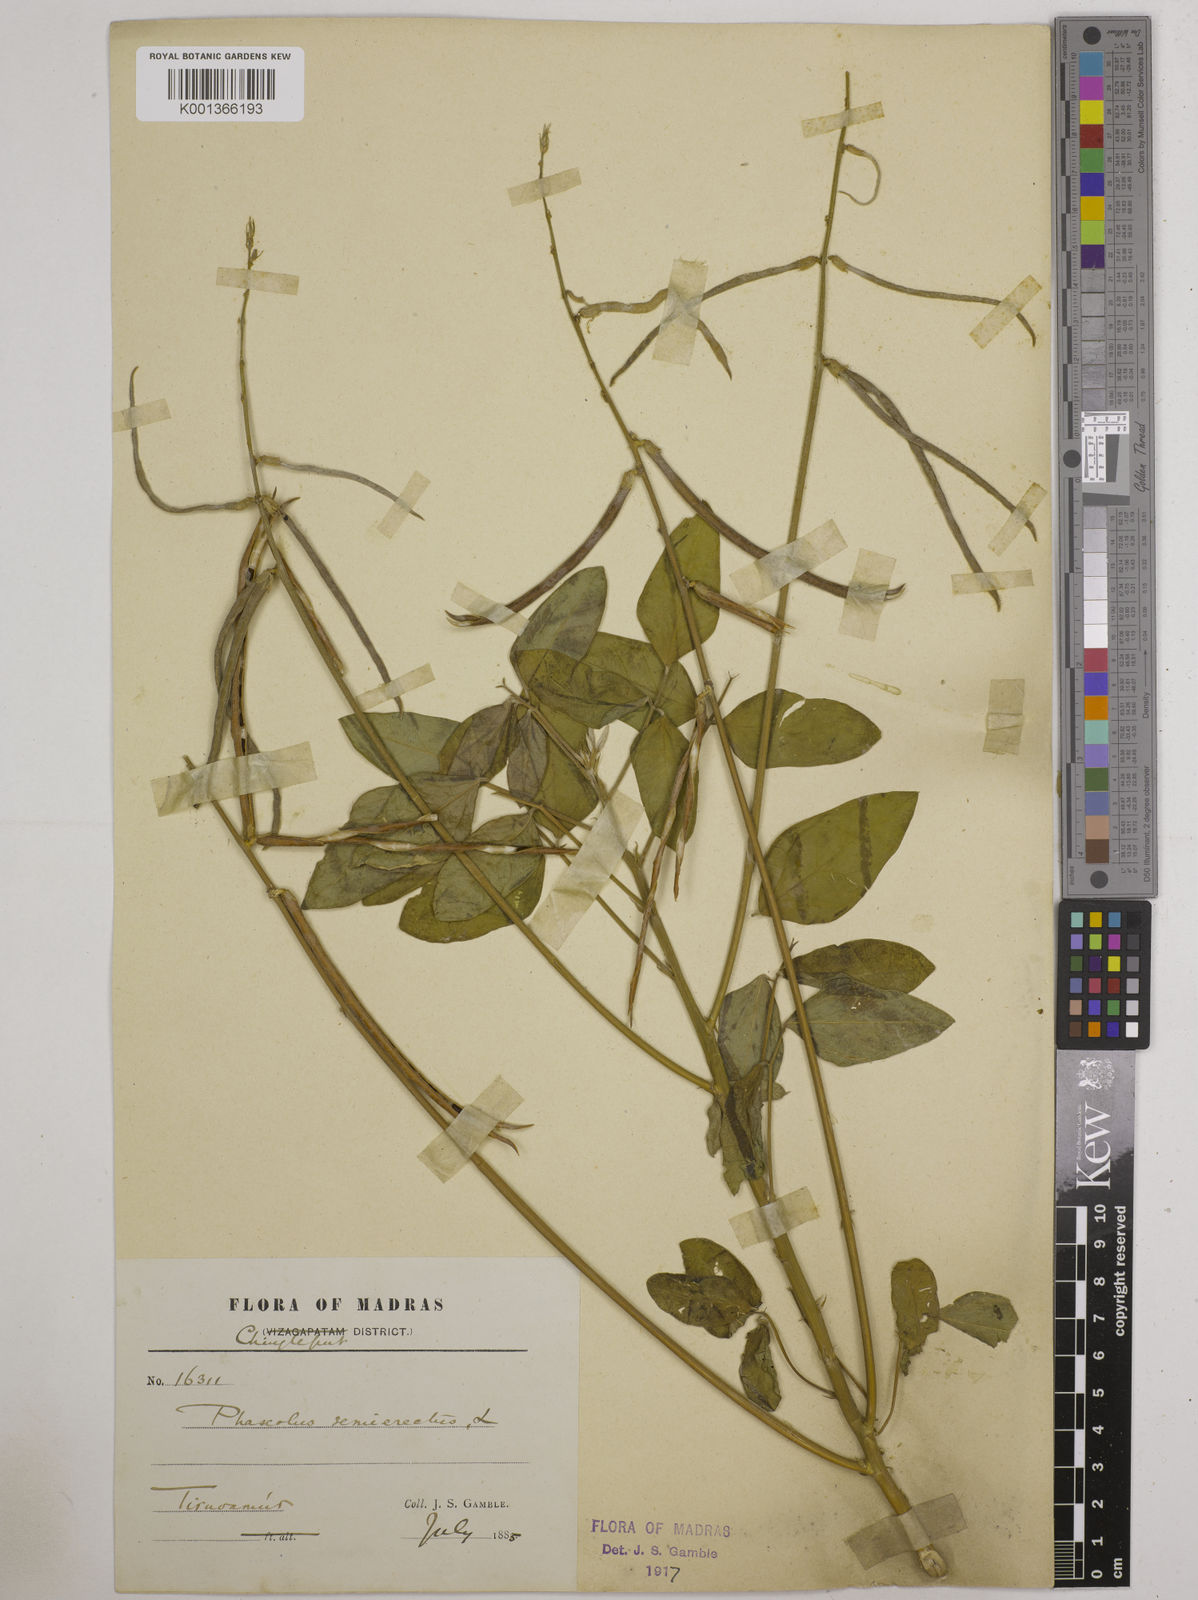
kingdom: Plantae
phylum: Tracheophyta
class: Magnoliopsida
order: Fabales
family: Fabaceae
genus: Macroptilium
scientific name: Macroptilium lathyroides
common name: Wild bushbean
